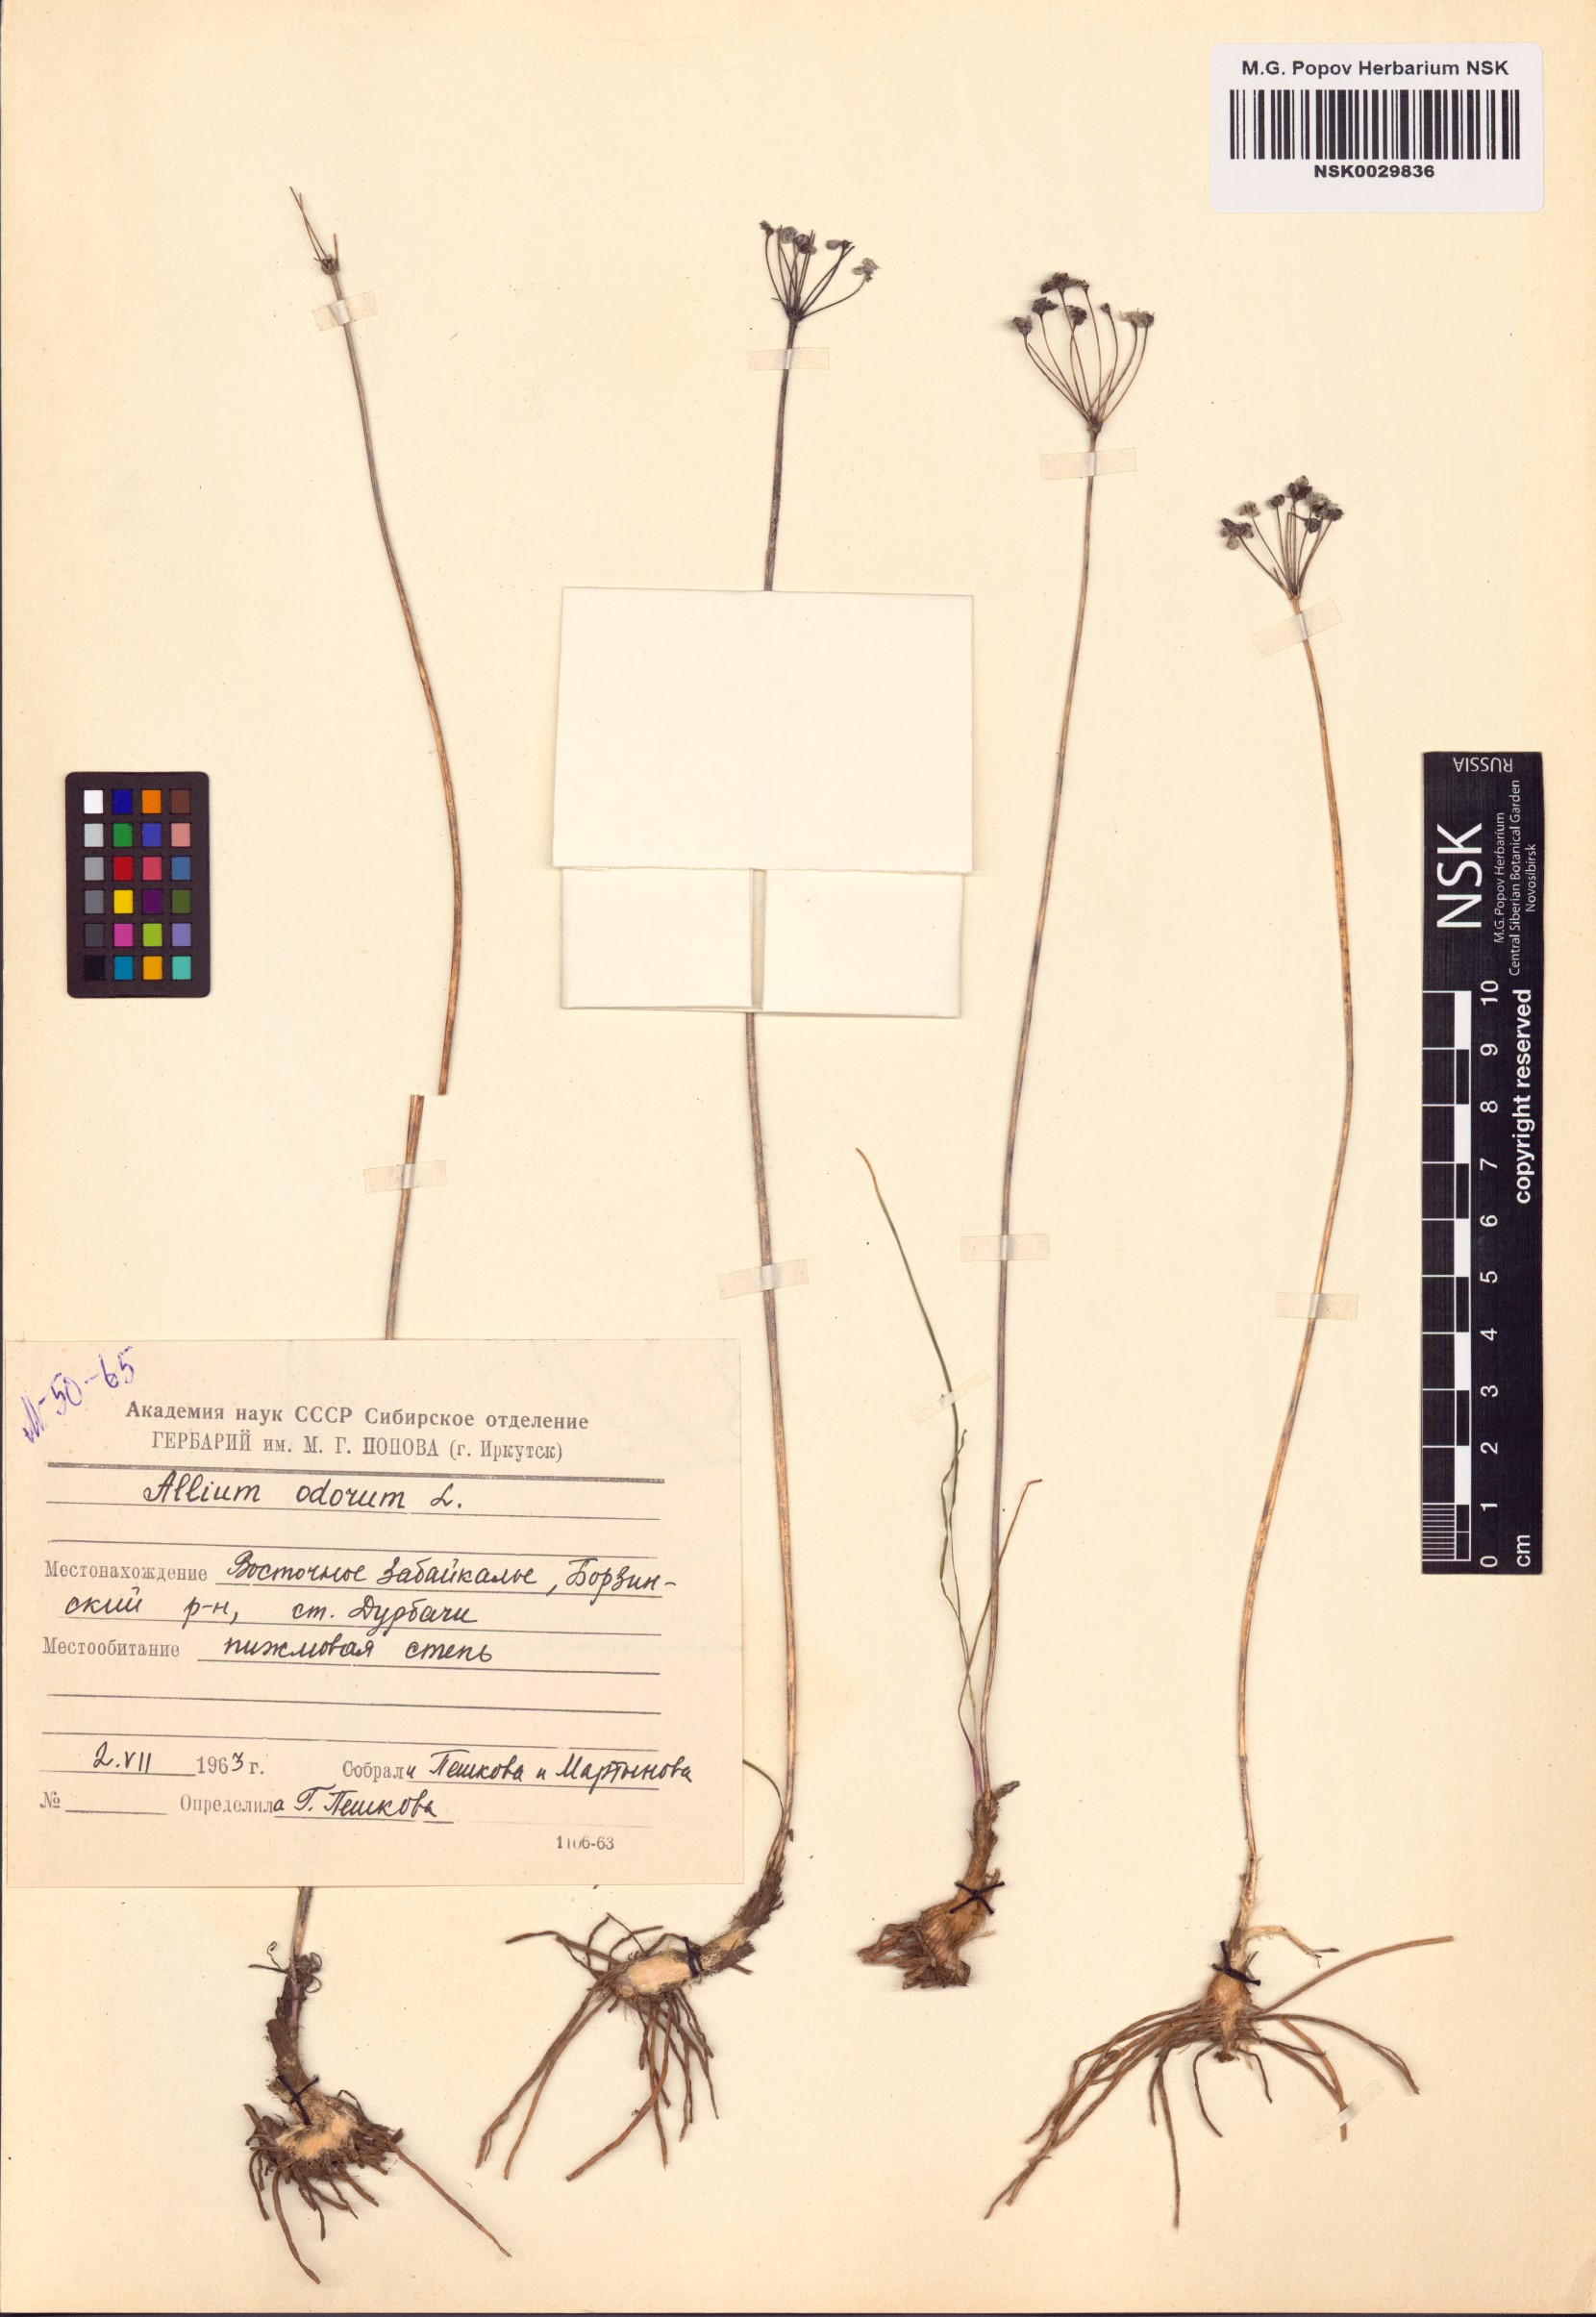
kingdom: Plantae
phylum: Tracheophyta
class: Liliopsida
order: Asparagales
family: Amaryllidaceae
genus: Allium
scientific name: Allium ramosum
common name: Fragrant garlic
